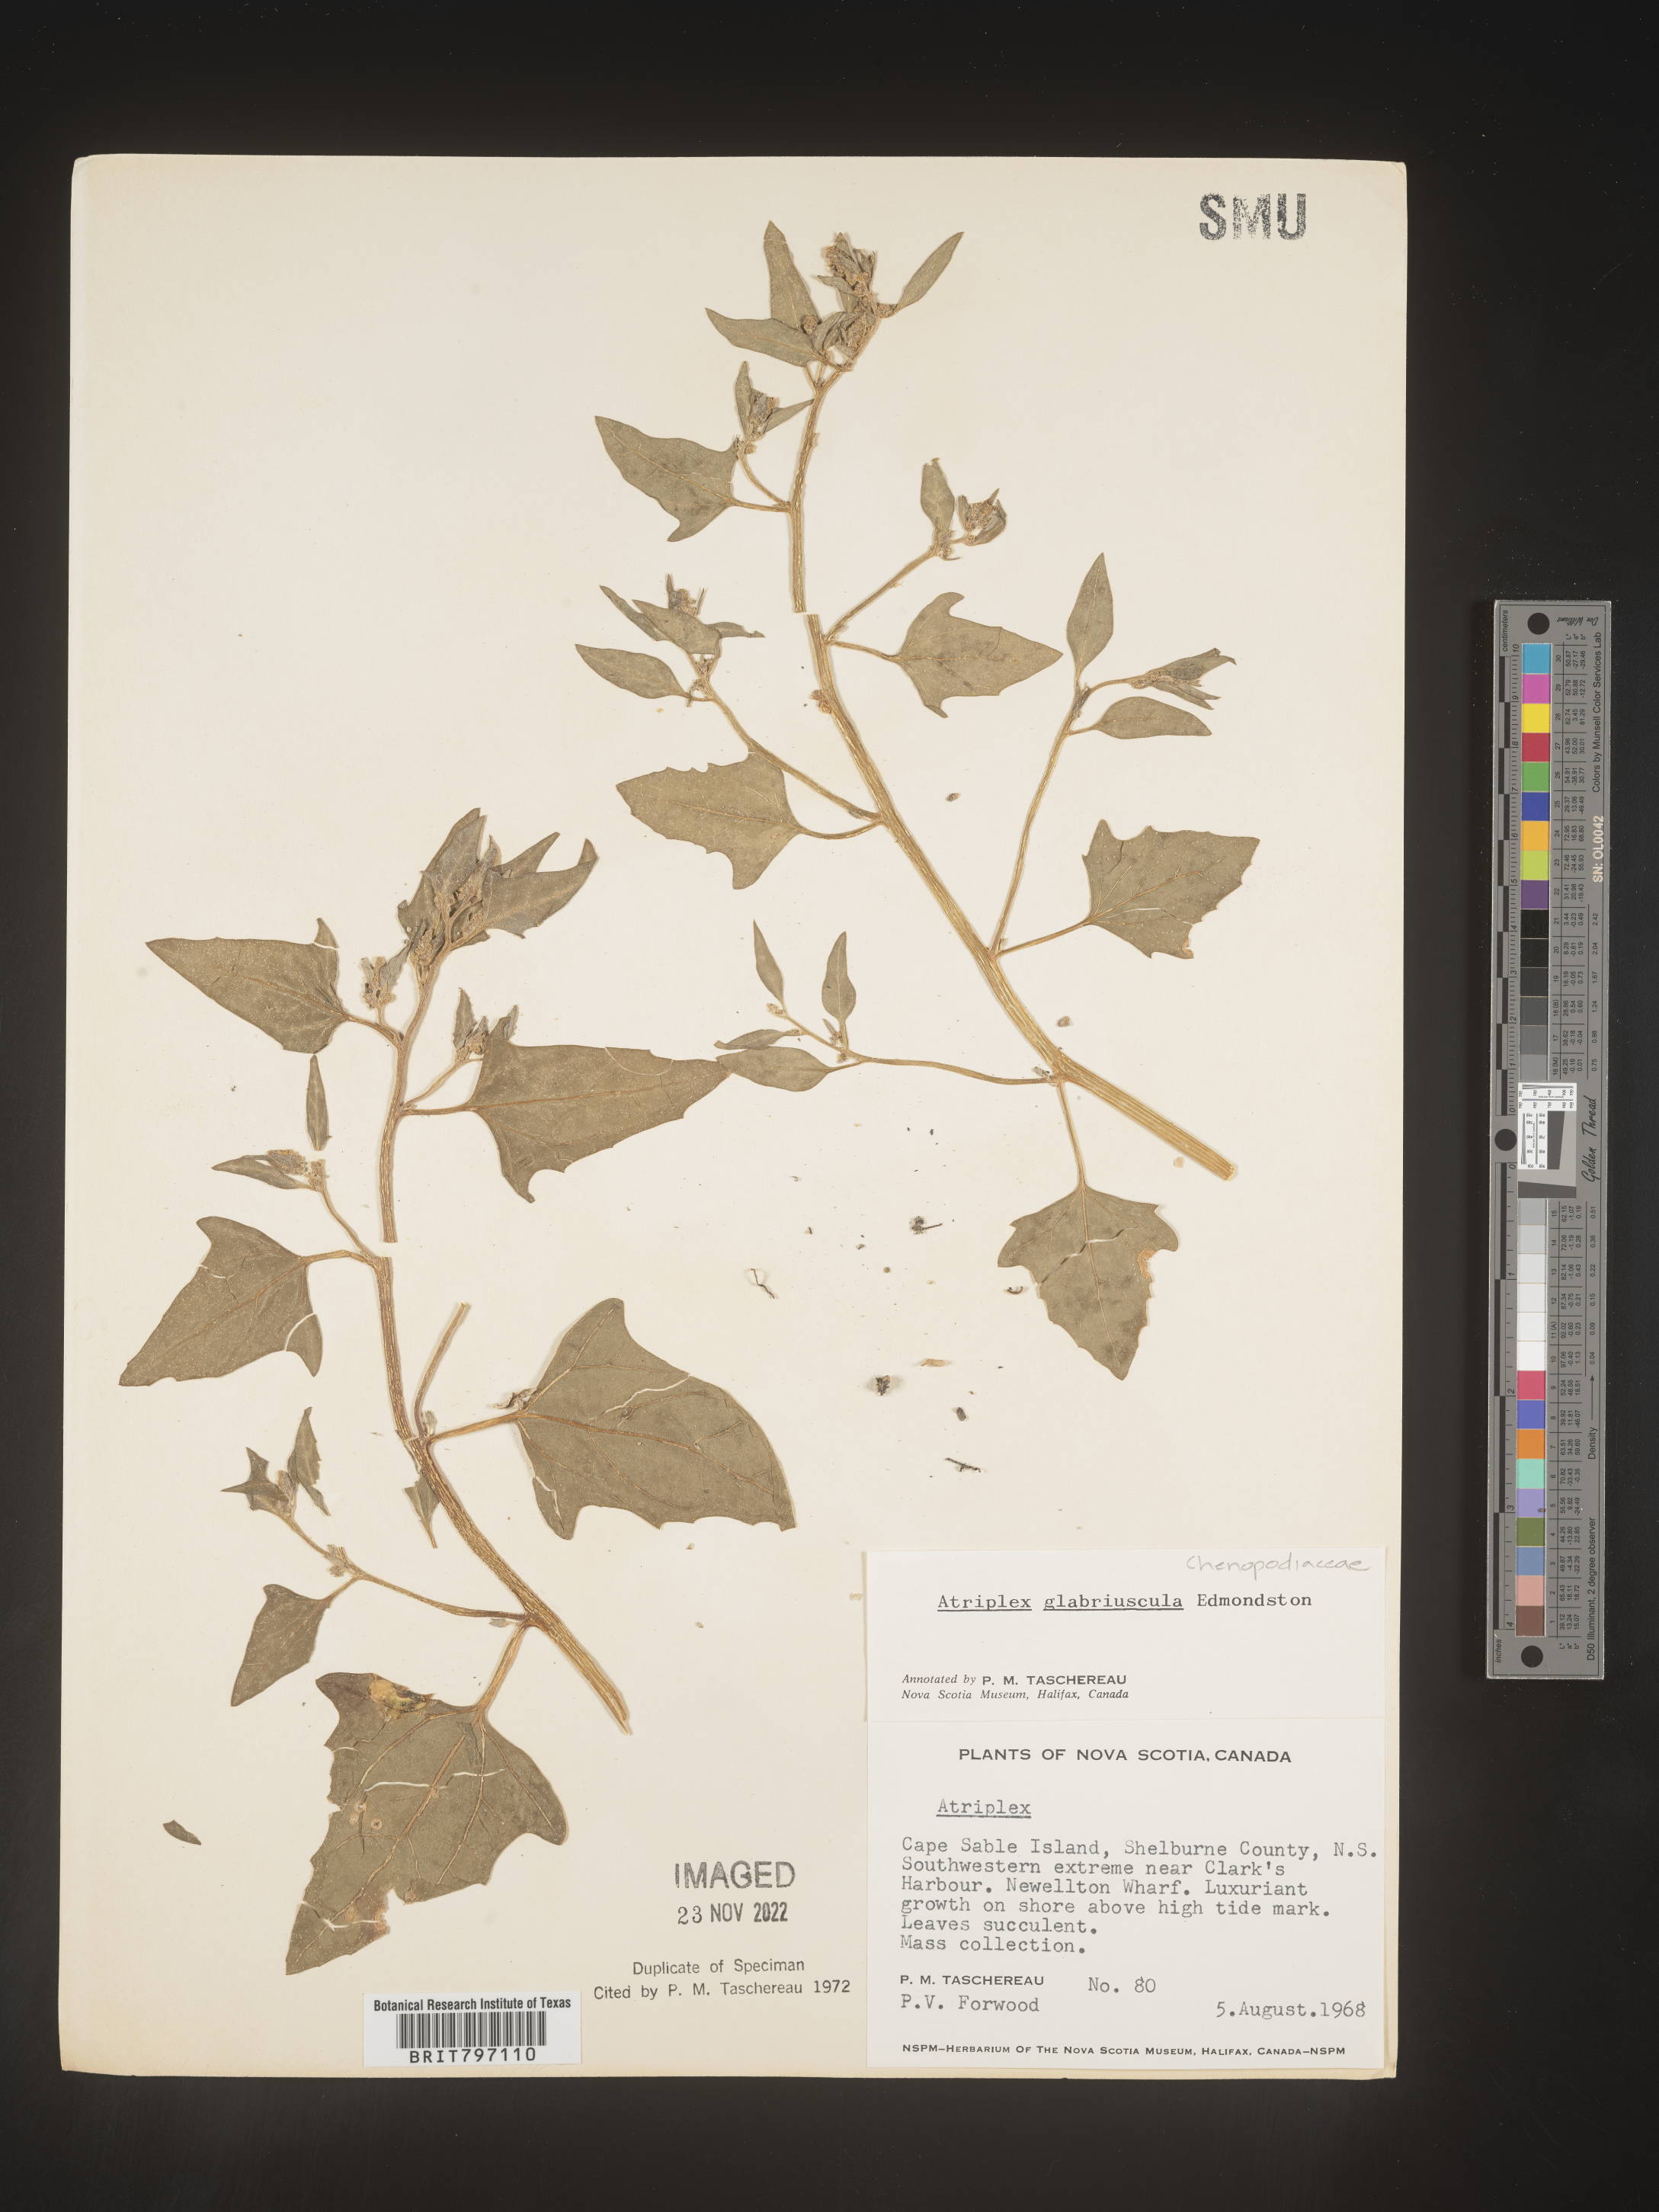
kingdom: Plantae
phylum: Tracheophyta
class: Magnoliopsida
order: Caryophyllales
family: Amaranthaceae
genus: Atriplex
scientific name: Atriplex
